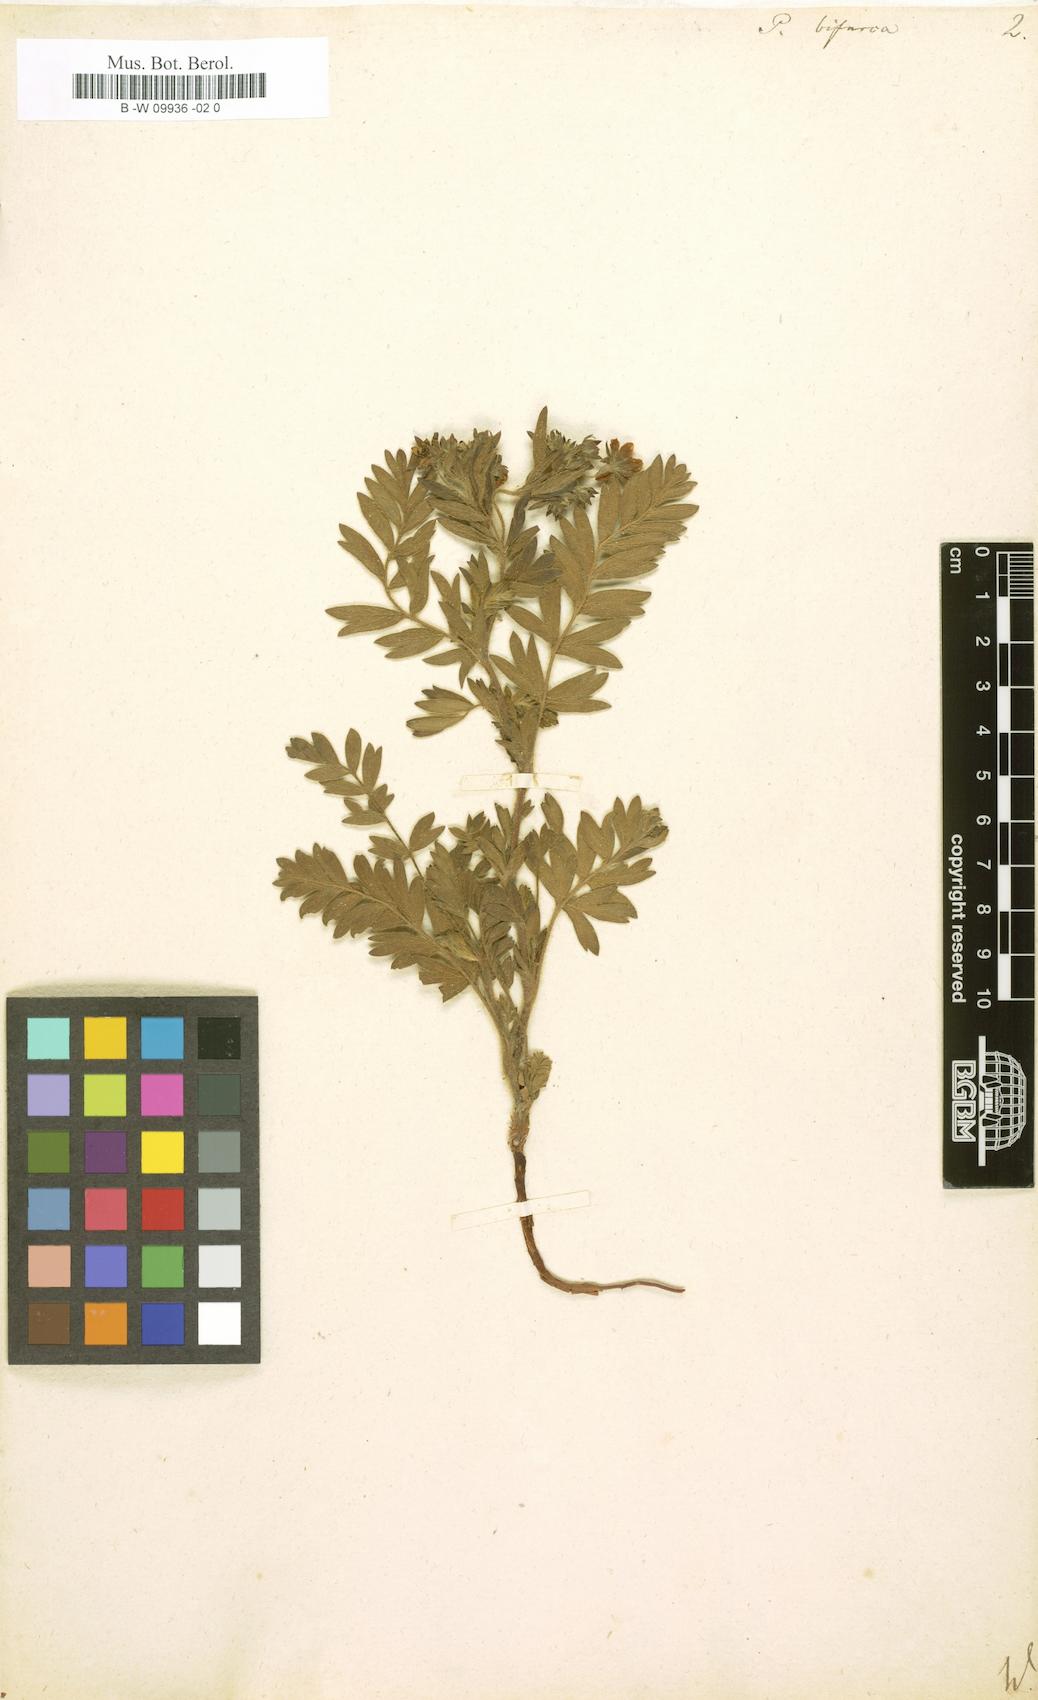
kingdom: Plantae
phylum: Tracheophyta
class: Magnoliopsida
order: Rosales
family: Rosaceae
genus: Sibbaldianthe
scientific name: Sibbaldianthe bifurca
